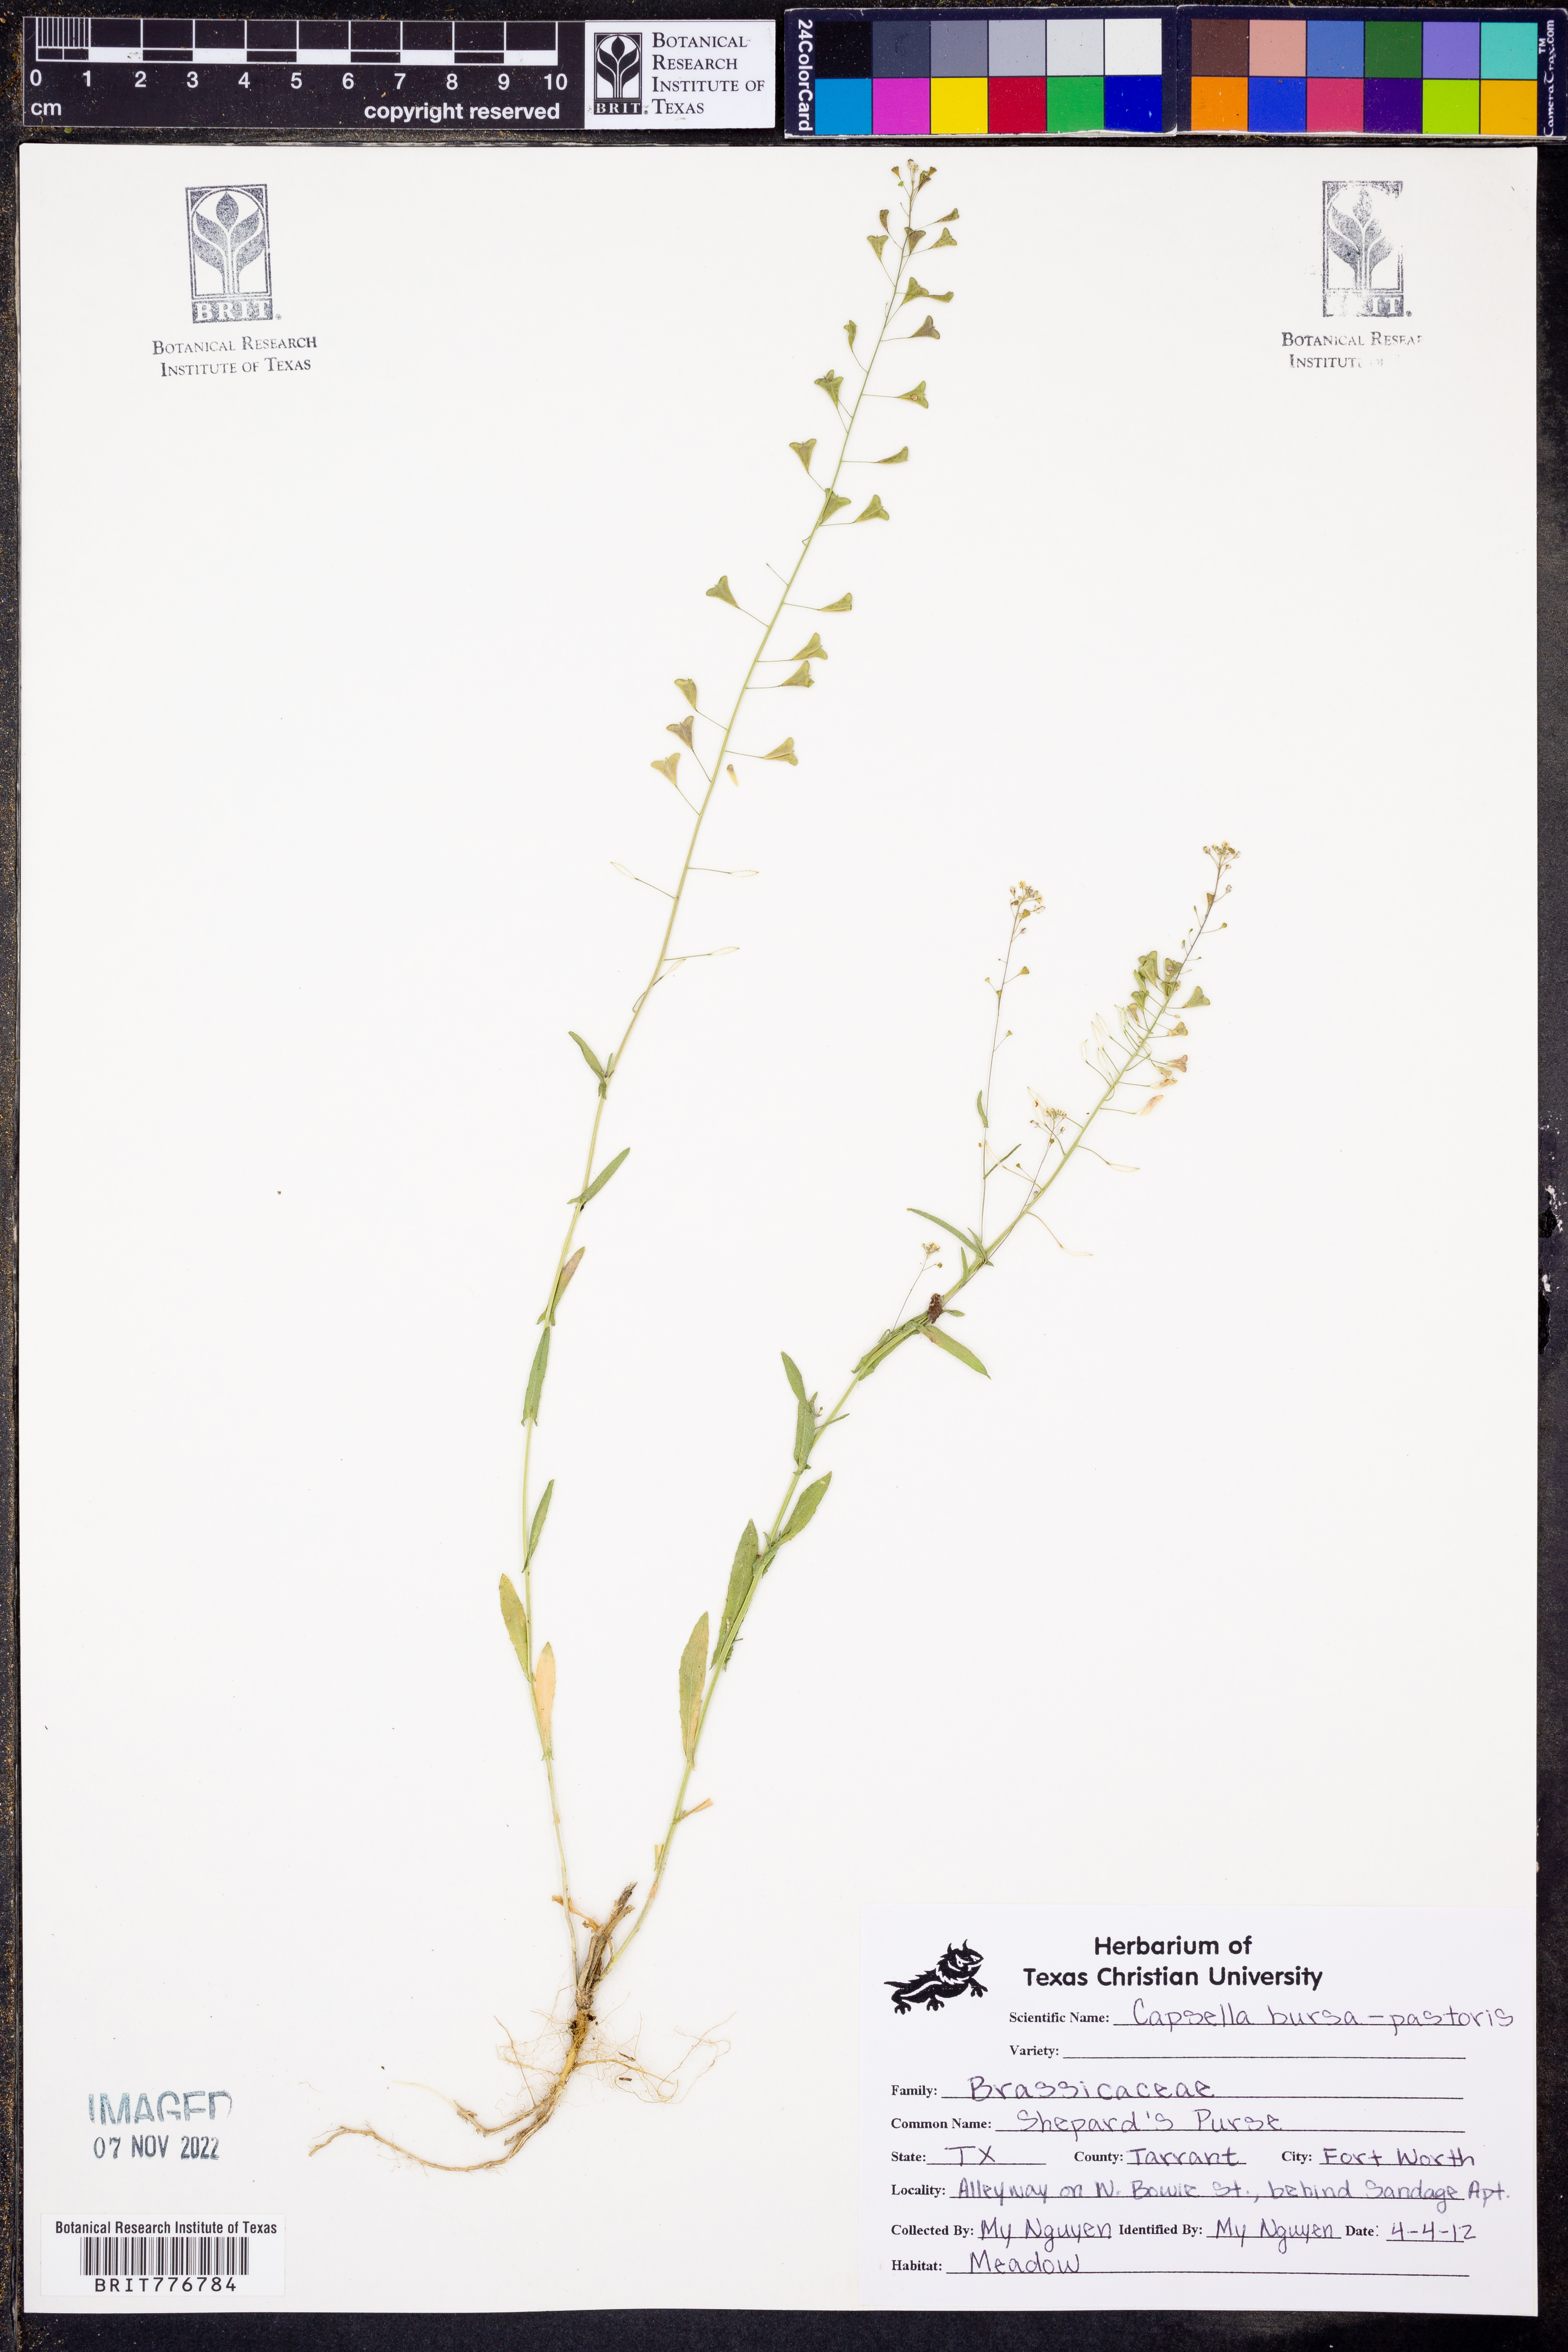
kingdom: Plantae
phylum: Tracheophyta
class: Magnoliopsida
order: Brassicales
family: Brassicaceae
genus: Capsella
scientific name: Capsella bursa-pastoris
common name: Shepherd's purse
